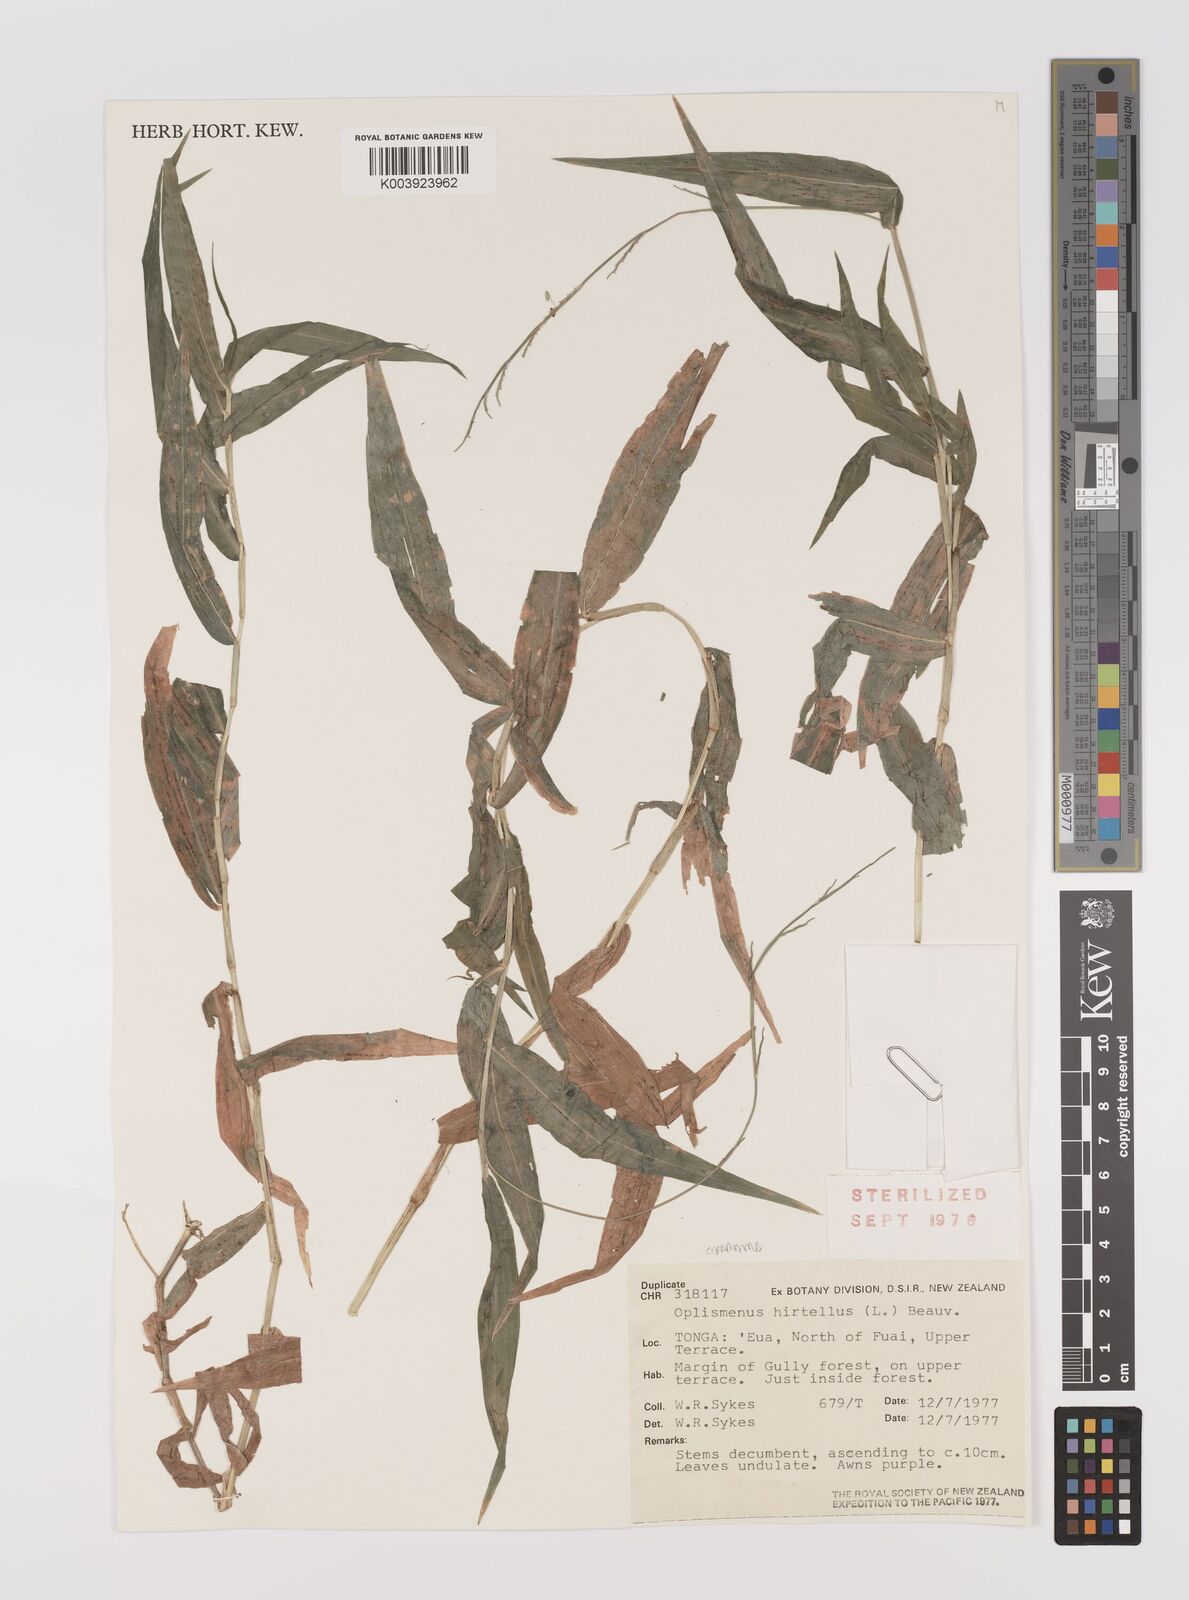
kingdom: Plantae
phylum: Tracheophyta
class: Liliopsida
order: Poales
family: Poaceae
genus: Oplismenus
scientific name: Oplismenus compositus
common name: Running mountain grass
